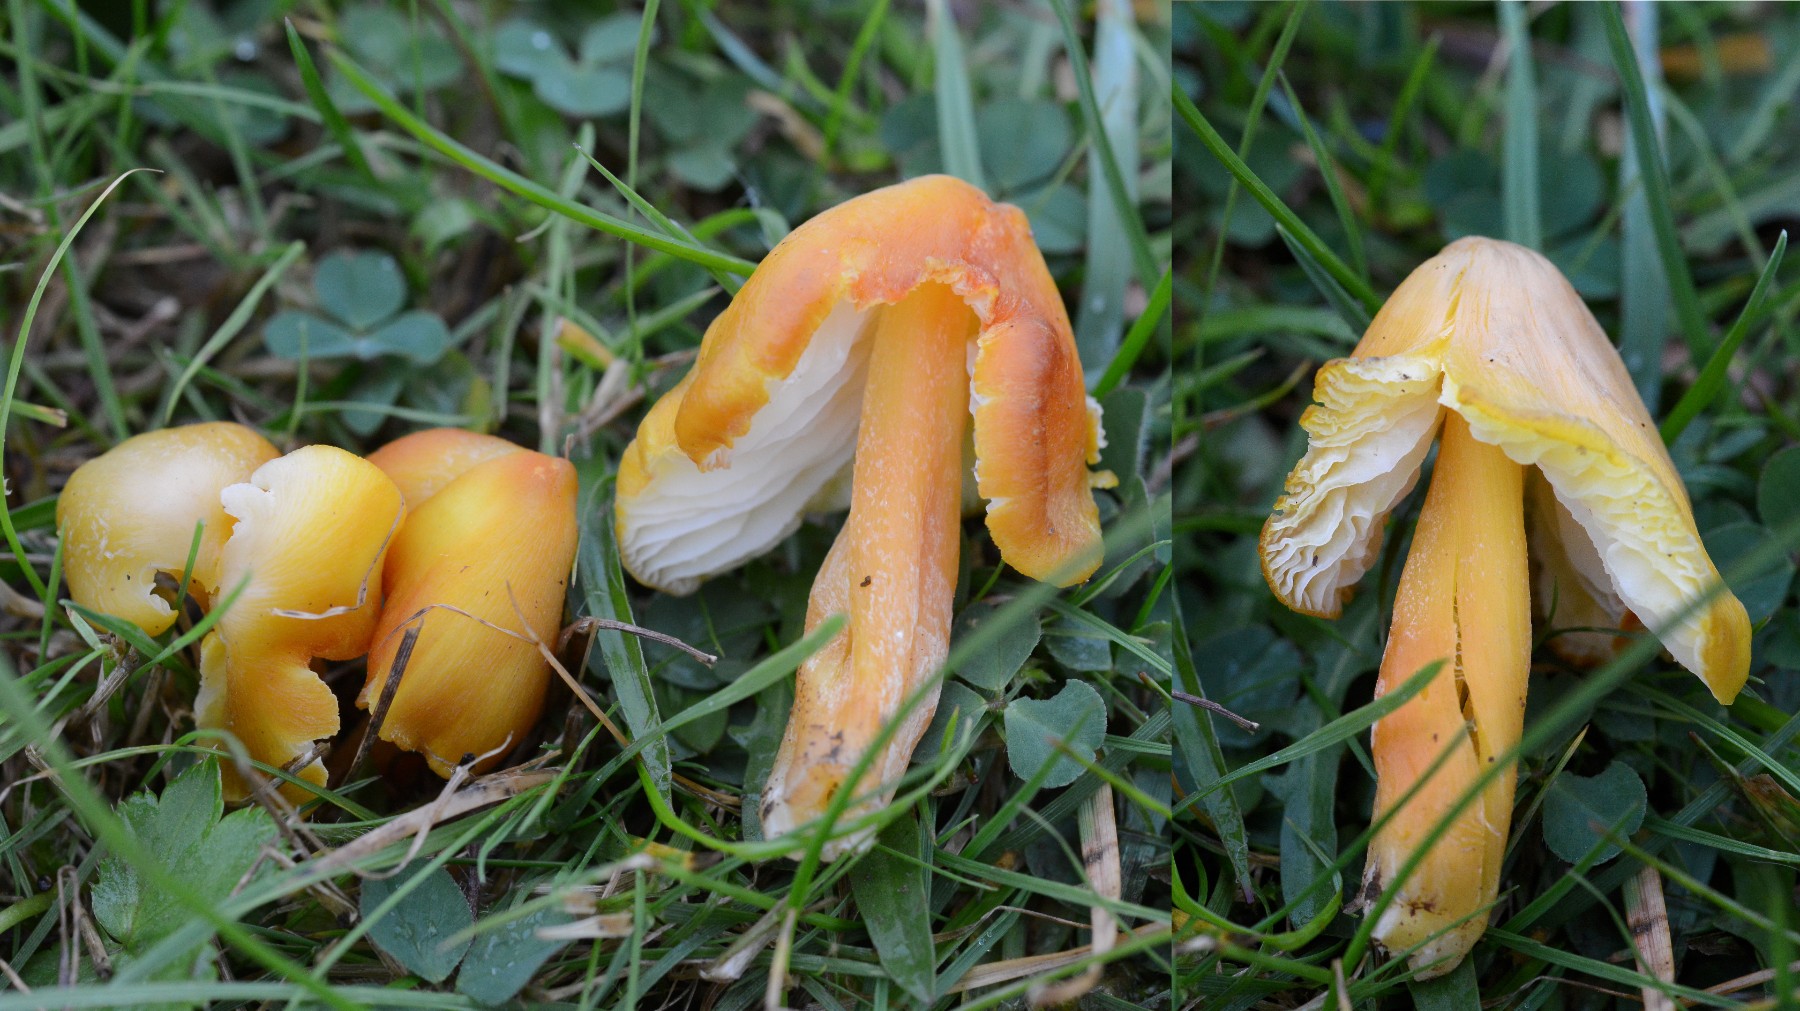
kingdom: Fungi
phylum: Basidiomycota
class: Agaricomycetes
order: Agaricales
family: Hygrophoraceae
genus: Hygrocybe
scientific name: Hygrocybe citrinovirens
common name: grøngul vokshat
